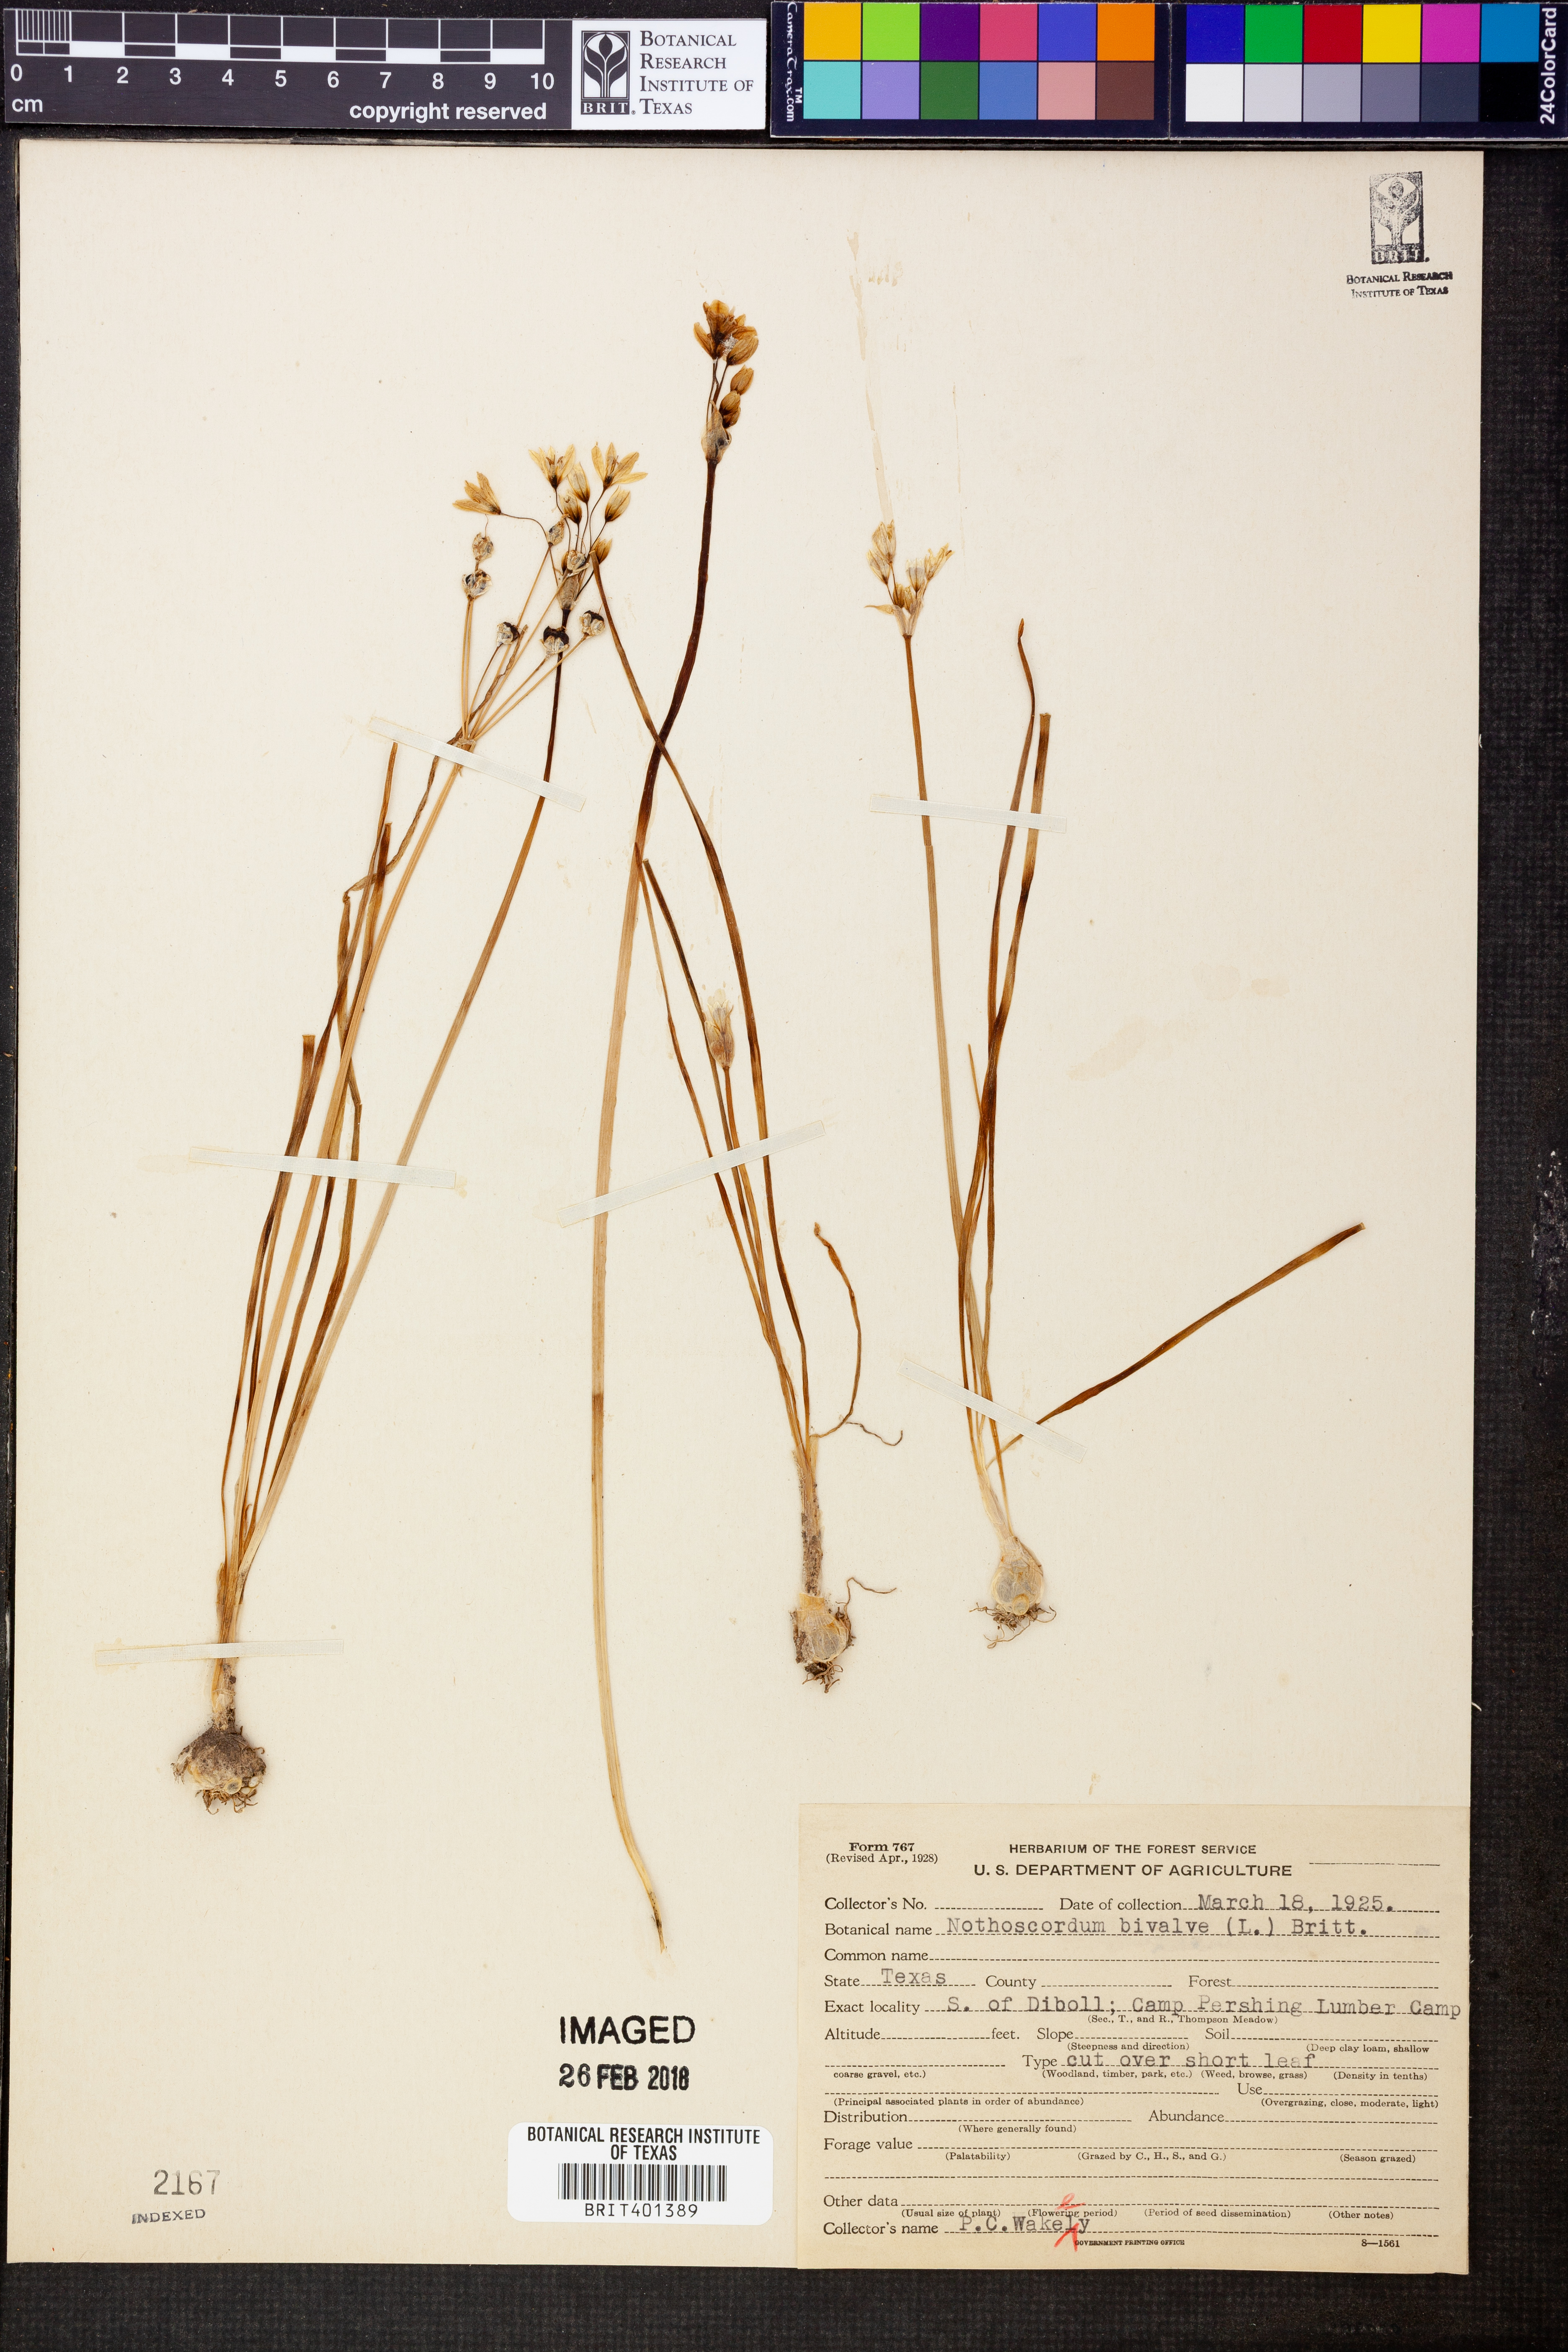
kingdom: Plantae
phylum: Tracheophyta
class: Liliopsida
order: Asparagales
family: Amaryllidaceae
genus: Nothoscordum
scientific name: Nothoscordum bivalve
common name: Crow-poison
